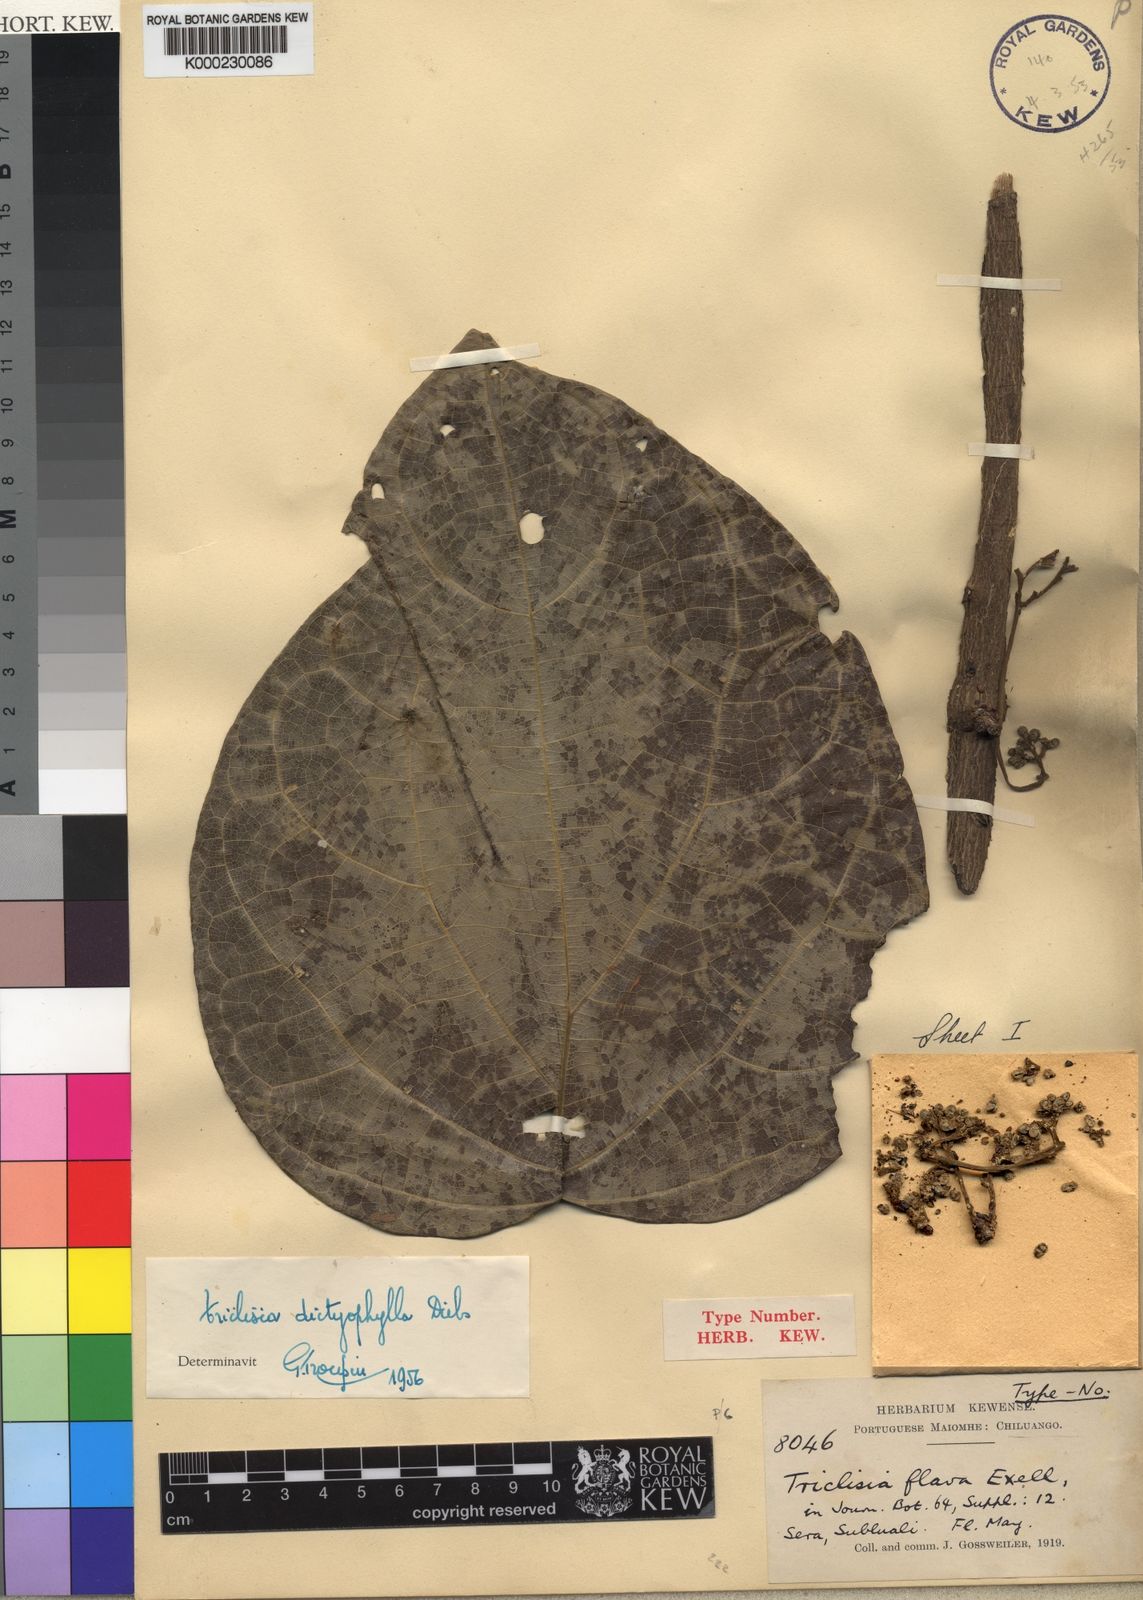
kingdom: Plantae
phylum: Tracheophyta
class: Magnoliopsida
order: Ranunculales
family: Menispermaceae
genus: Triclisia
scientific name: Triclisia dictyophylla
